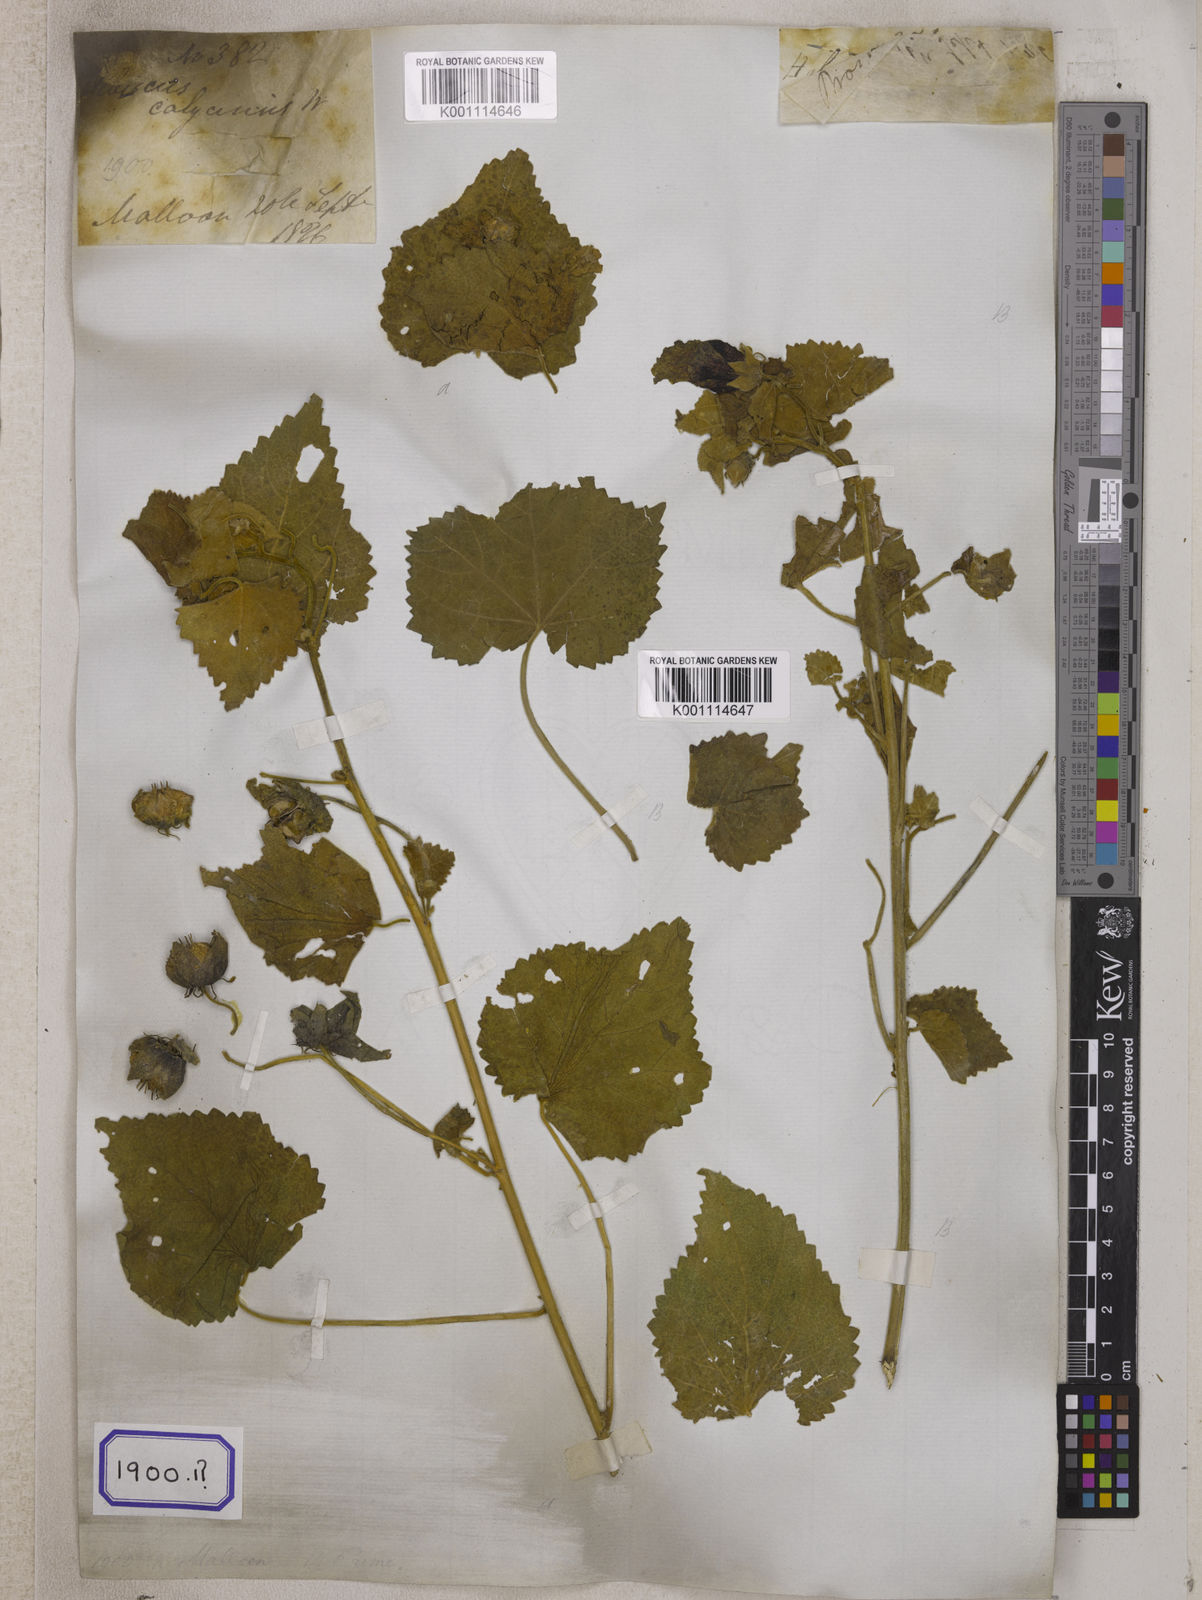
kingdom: Plantae
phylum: Tracheophyta
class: Magnoliopsida
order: Malvales
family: Malvaceae
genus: Hibiscus
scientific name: Hibiscus vitifolius
